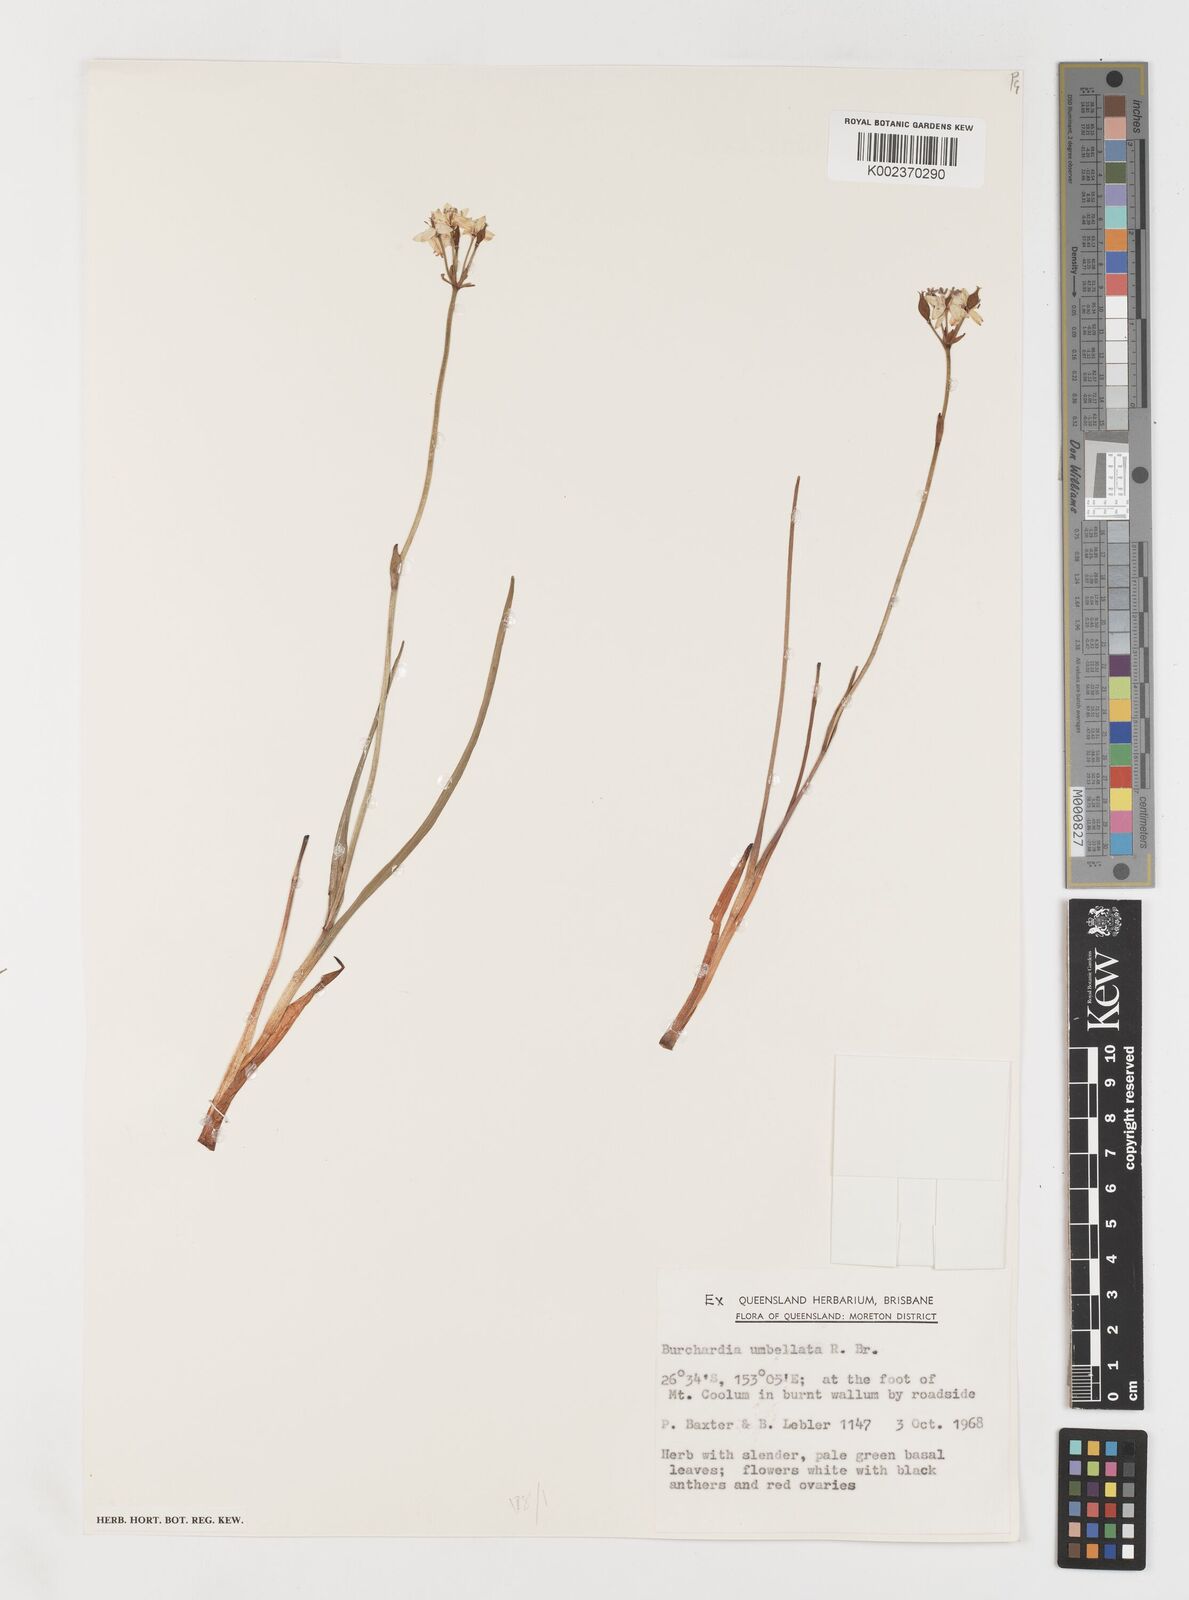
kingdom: Plantae
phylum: Tracheophyta
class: Liliopsida
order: Liliales
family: Colchicaceae
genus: Burchardia
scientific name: Burchardia umbellata
